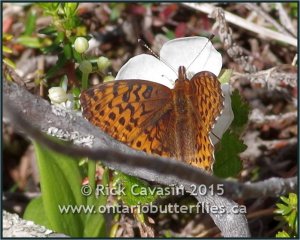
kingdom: Animalia
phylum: Arthropoda
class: Insecta
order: Lepidoptera
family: Nymphalidae
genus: Clossiana
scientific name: Clossiana toddi
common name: Meadow Fritillary
